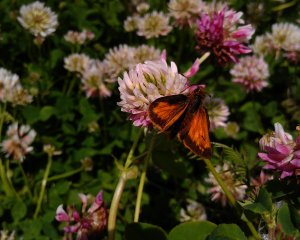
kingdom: Animalia
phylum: Arthropoda
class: Insecta
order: Lepidoptera
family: Hesperiidae
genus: Lon
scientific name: Lon hobomok
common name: Hobomok Skipper
